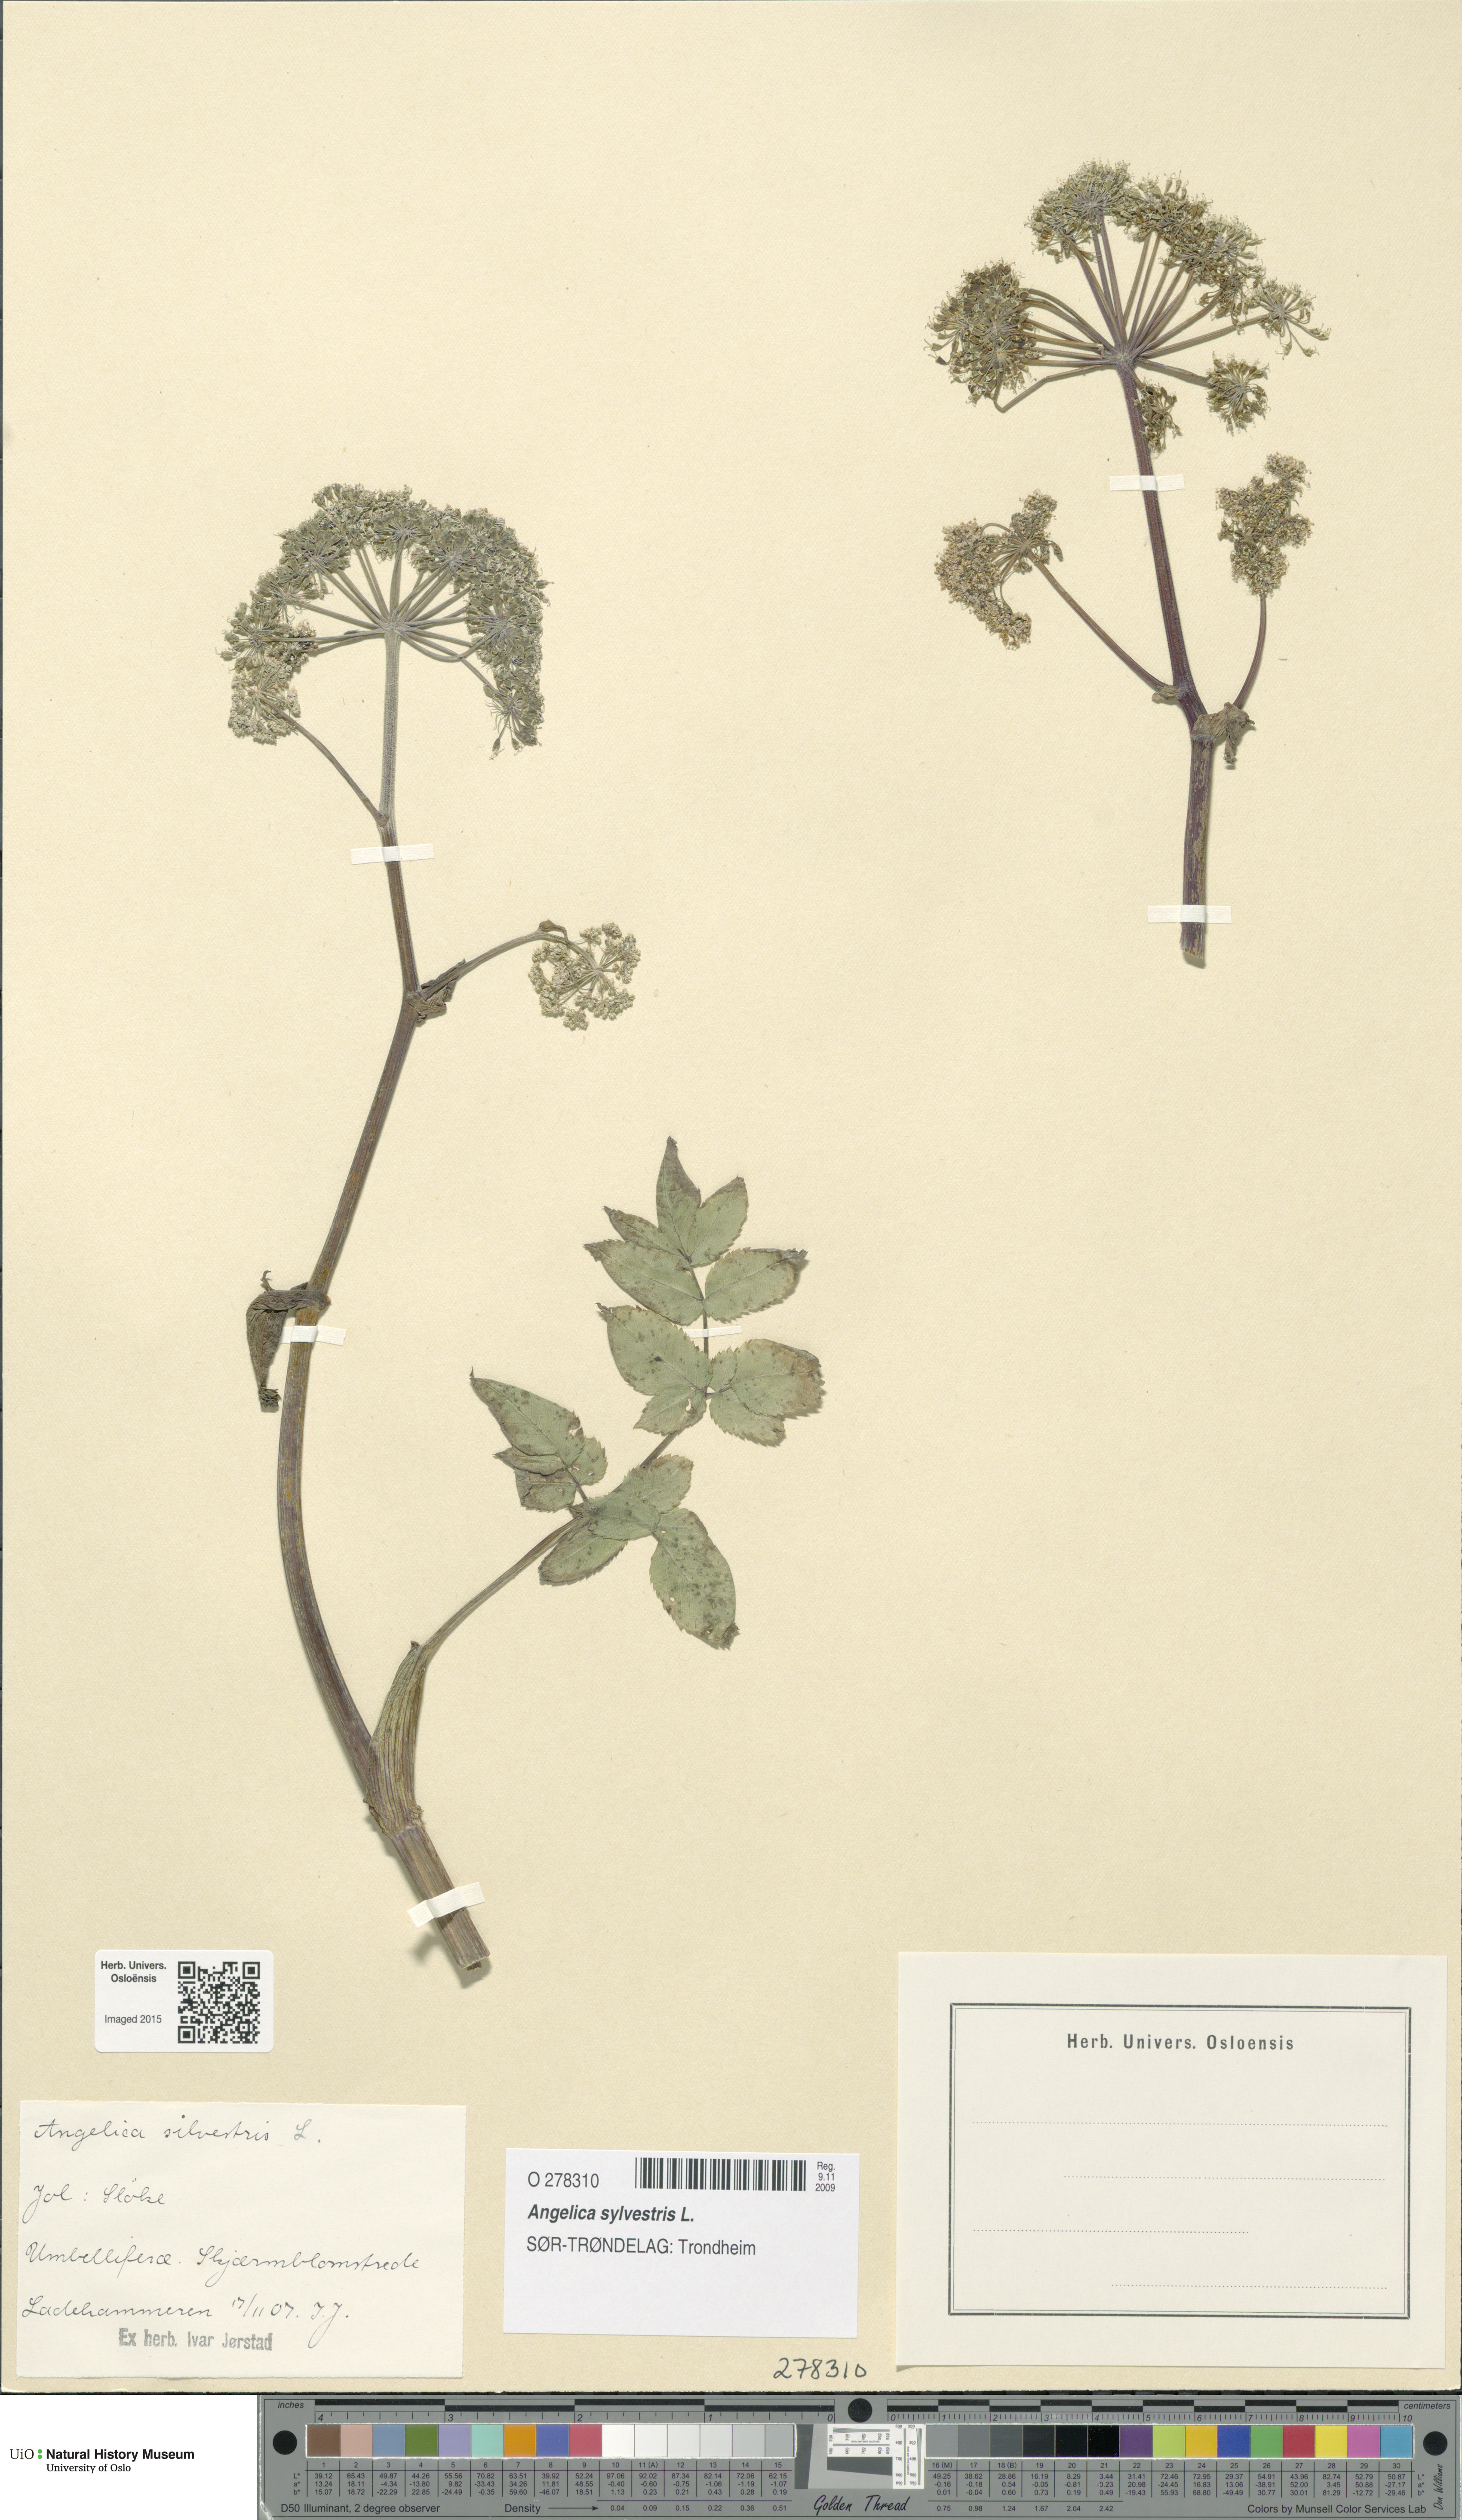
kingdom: Plantae
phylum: Tracheophyta
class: Magnoliopsida
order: Apiales
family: Apiaceae
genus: Angelica
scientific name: Angelica sylvestris
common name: Wild angelica
